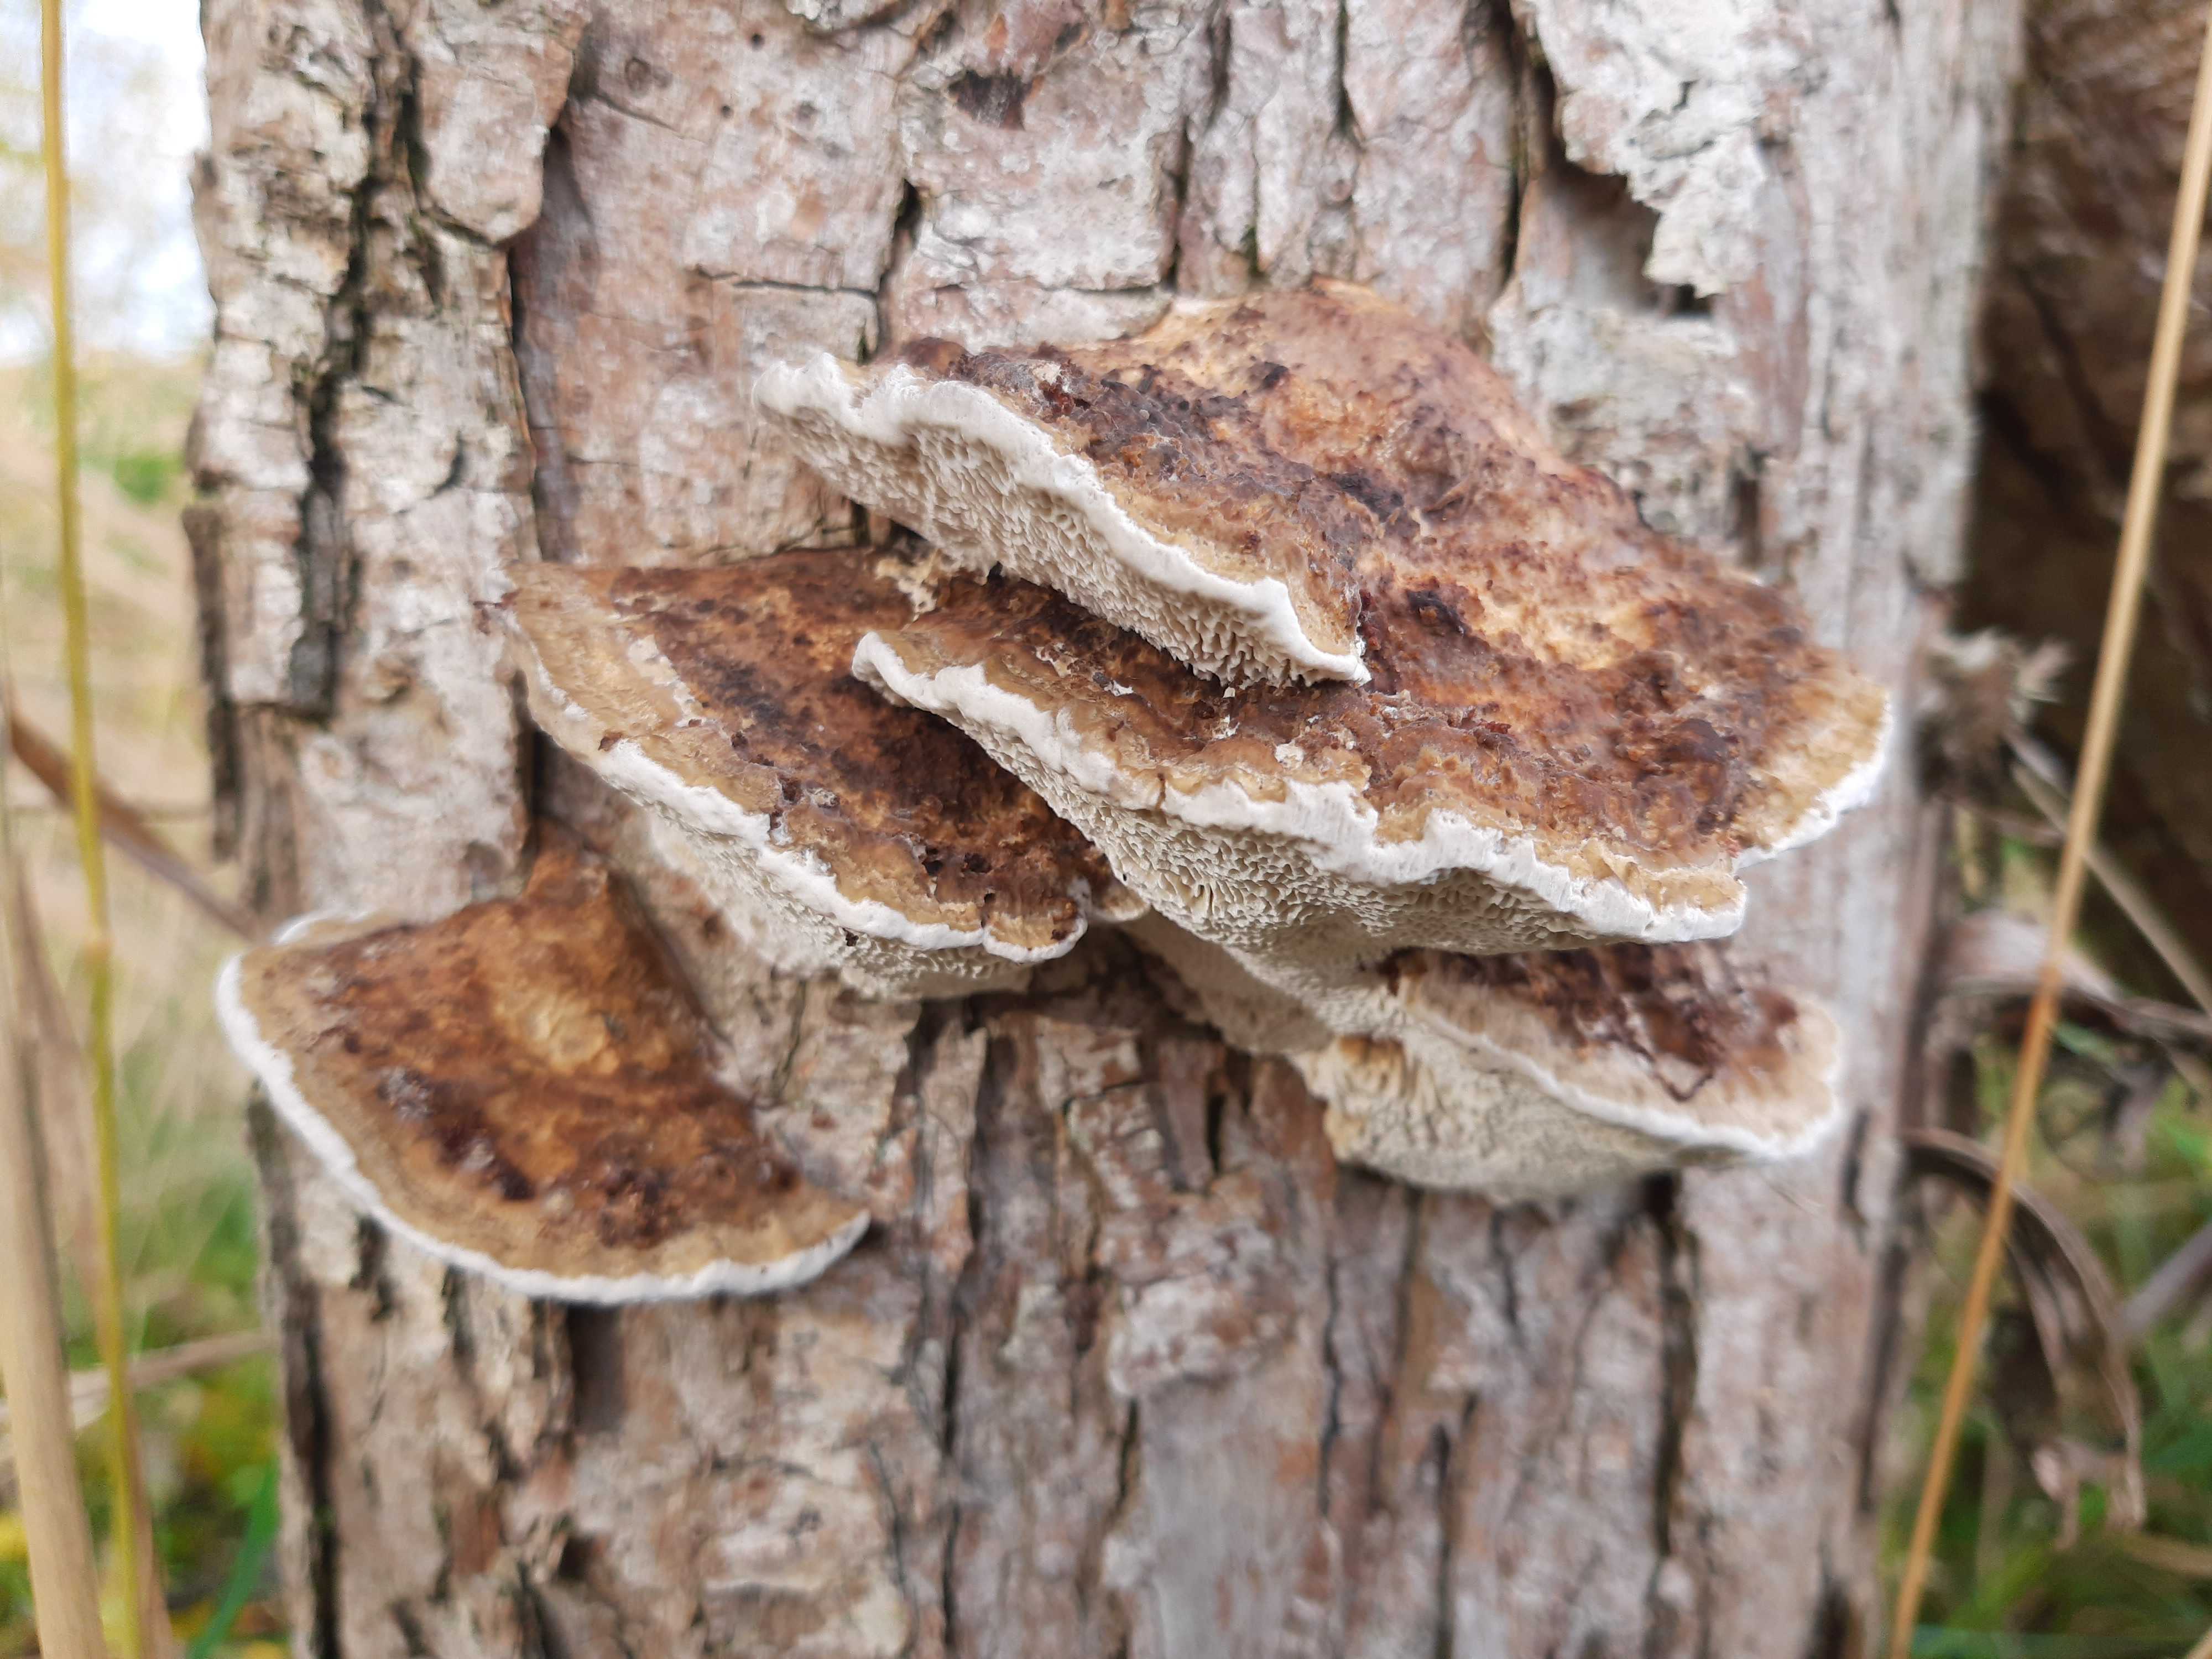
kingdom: Fungi
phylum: Basidiomycota
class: Agaricomycetes
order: Polyporales
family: Polyporaceae
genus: Daedaleopsis
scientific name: Daedaleopsis confragosa
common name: rødmende læderporesvamp
